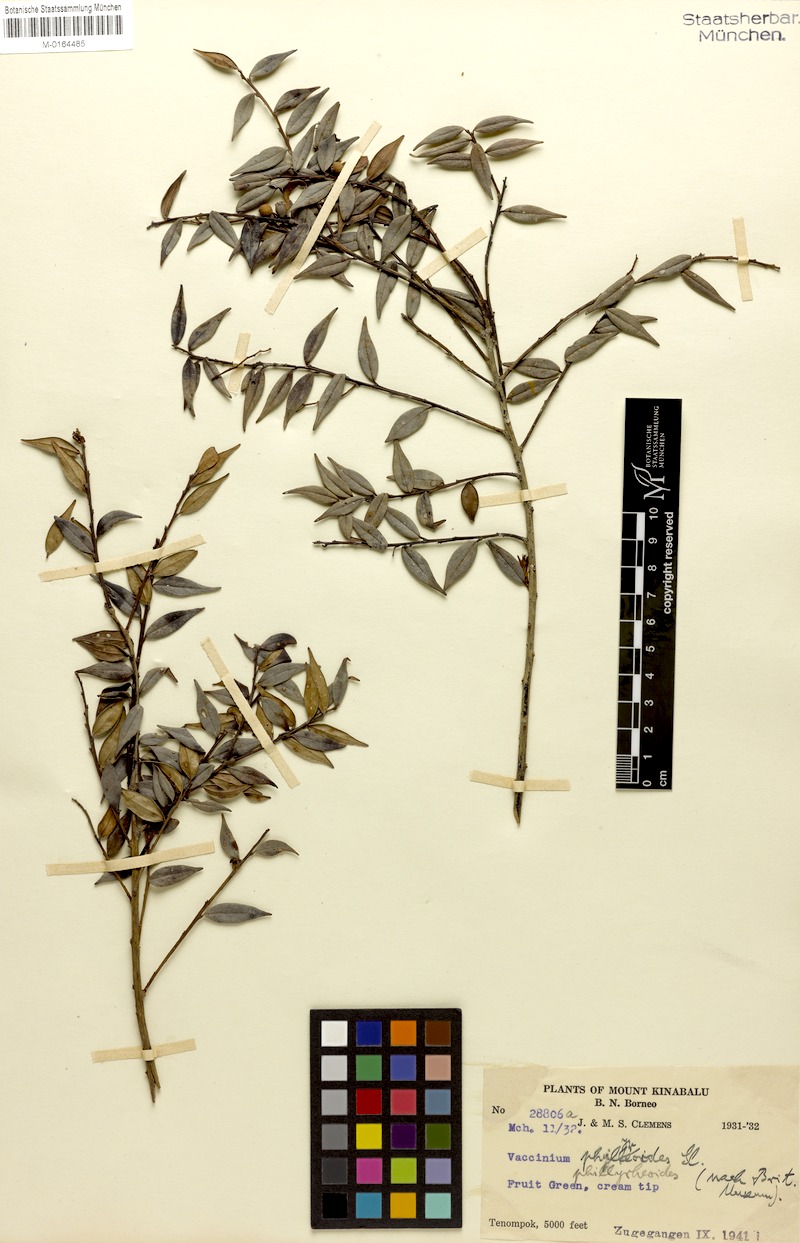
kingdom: Plantae
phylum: Tracheophyta
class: Magnoliopsida
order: Ericales
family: Ericaceae
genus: Vaccinium
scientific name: Vaccinium phillyreoides
